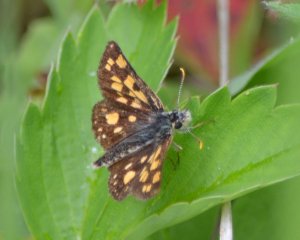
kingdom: Animalia
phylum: Arthropoda
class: Insecta
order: Lepidoptera
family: Hesperiidae
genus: Carterocephalus
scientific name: Carterocephalus palaemon
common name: Chequered Skipper
